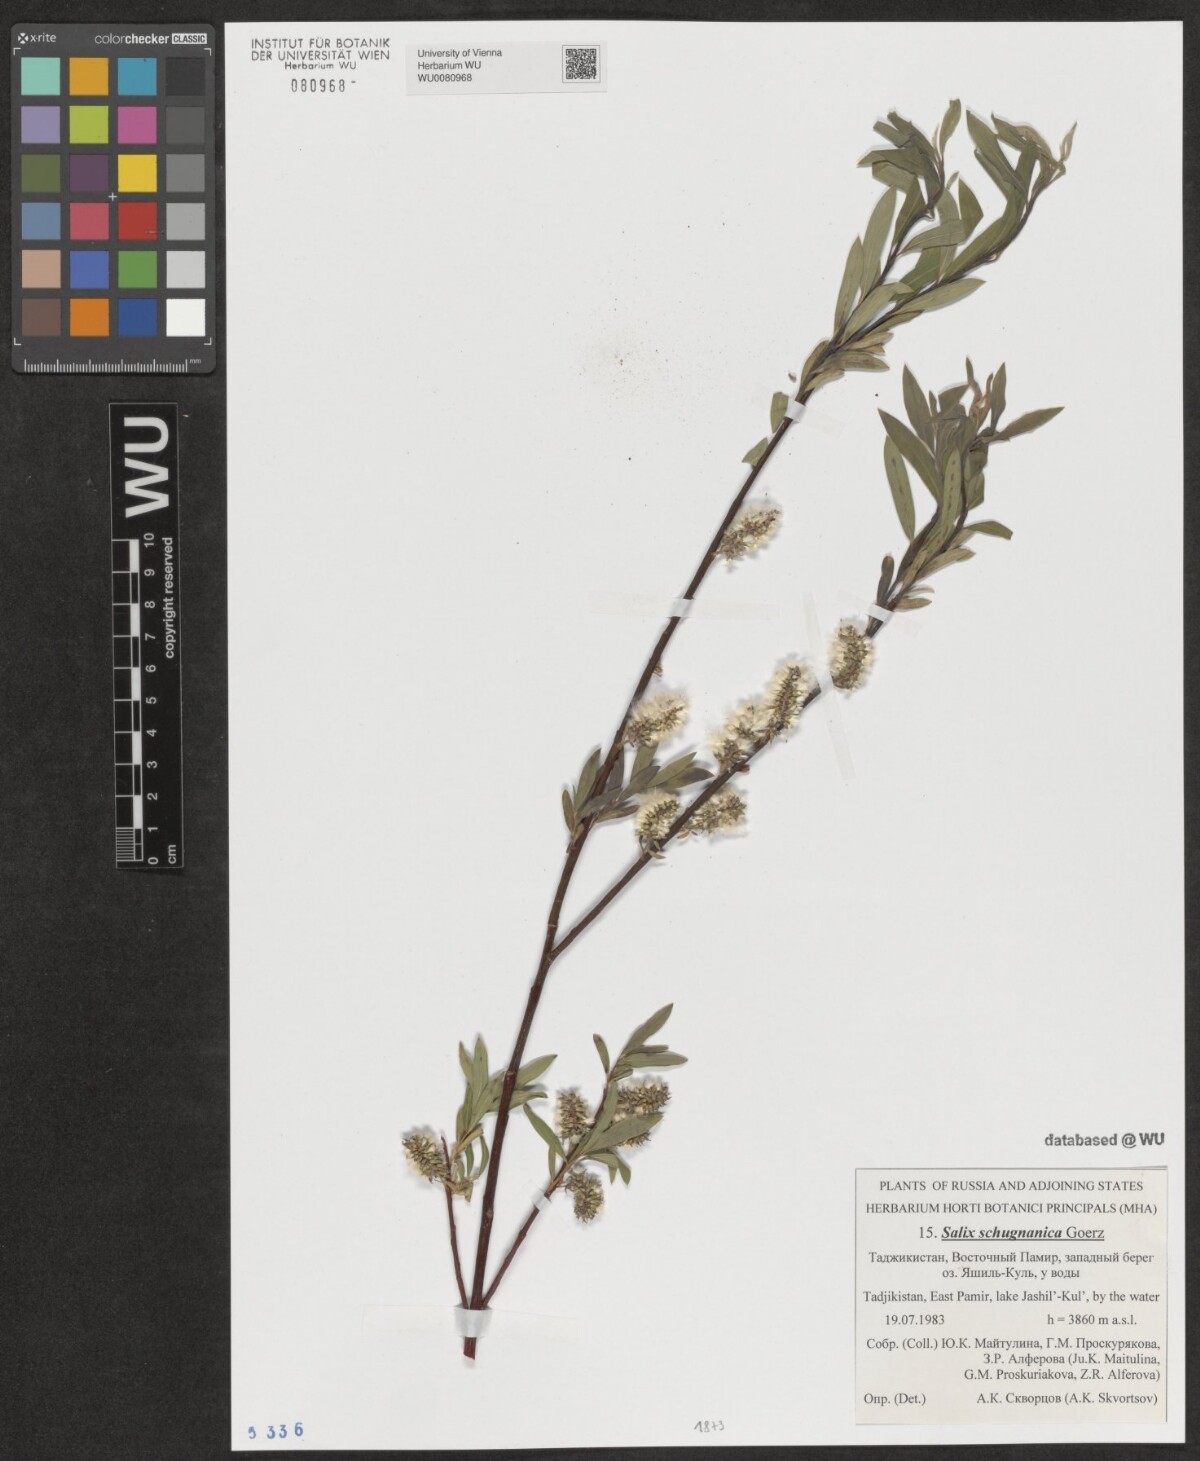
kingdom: Plantae
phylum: Tracheophyta
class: Magnoliopsida
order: Malpighiales
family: Salicaceae
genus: Salix
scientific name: Salix rosmarinifolia
